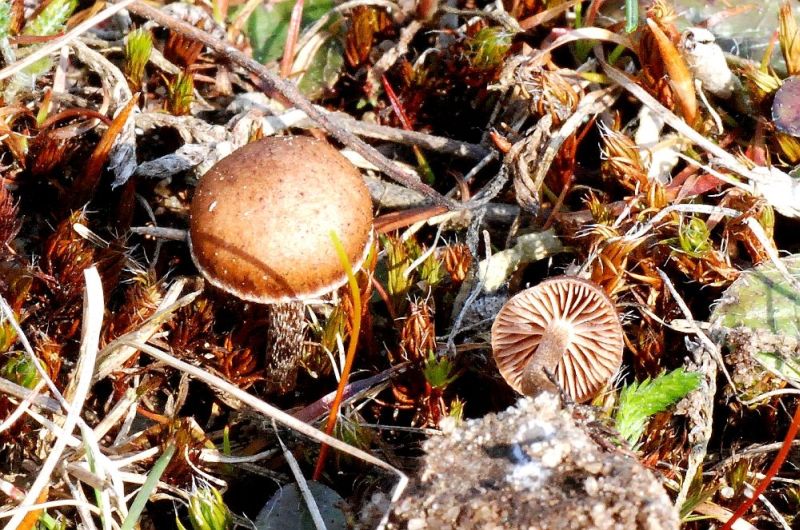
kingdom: Fungi
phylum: Basidiomycota
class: Agaricomycetes
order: Agaricales
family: Strophariaceae
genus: Deconica
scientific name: Deconica montana
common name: rødbrun stråhat
